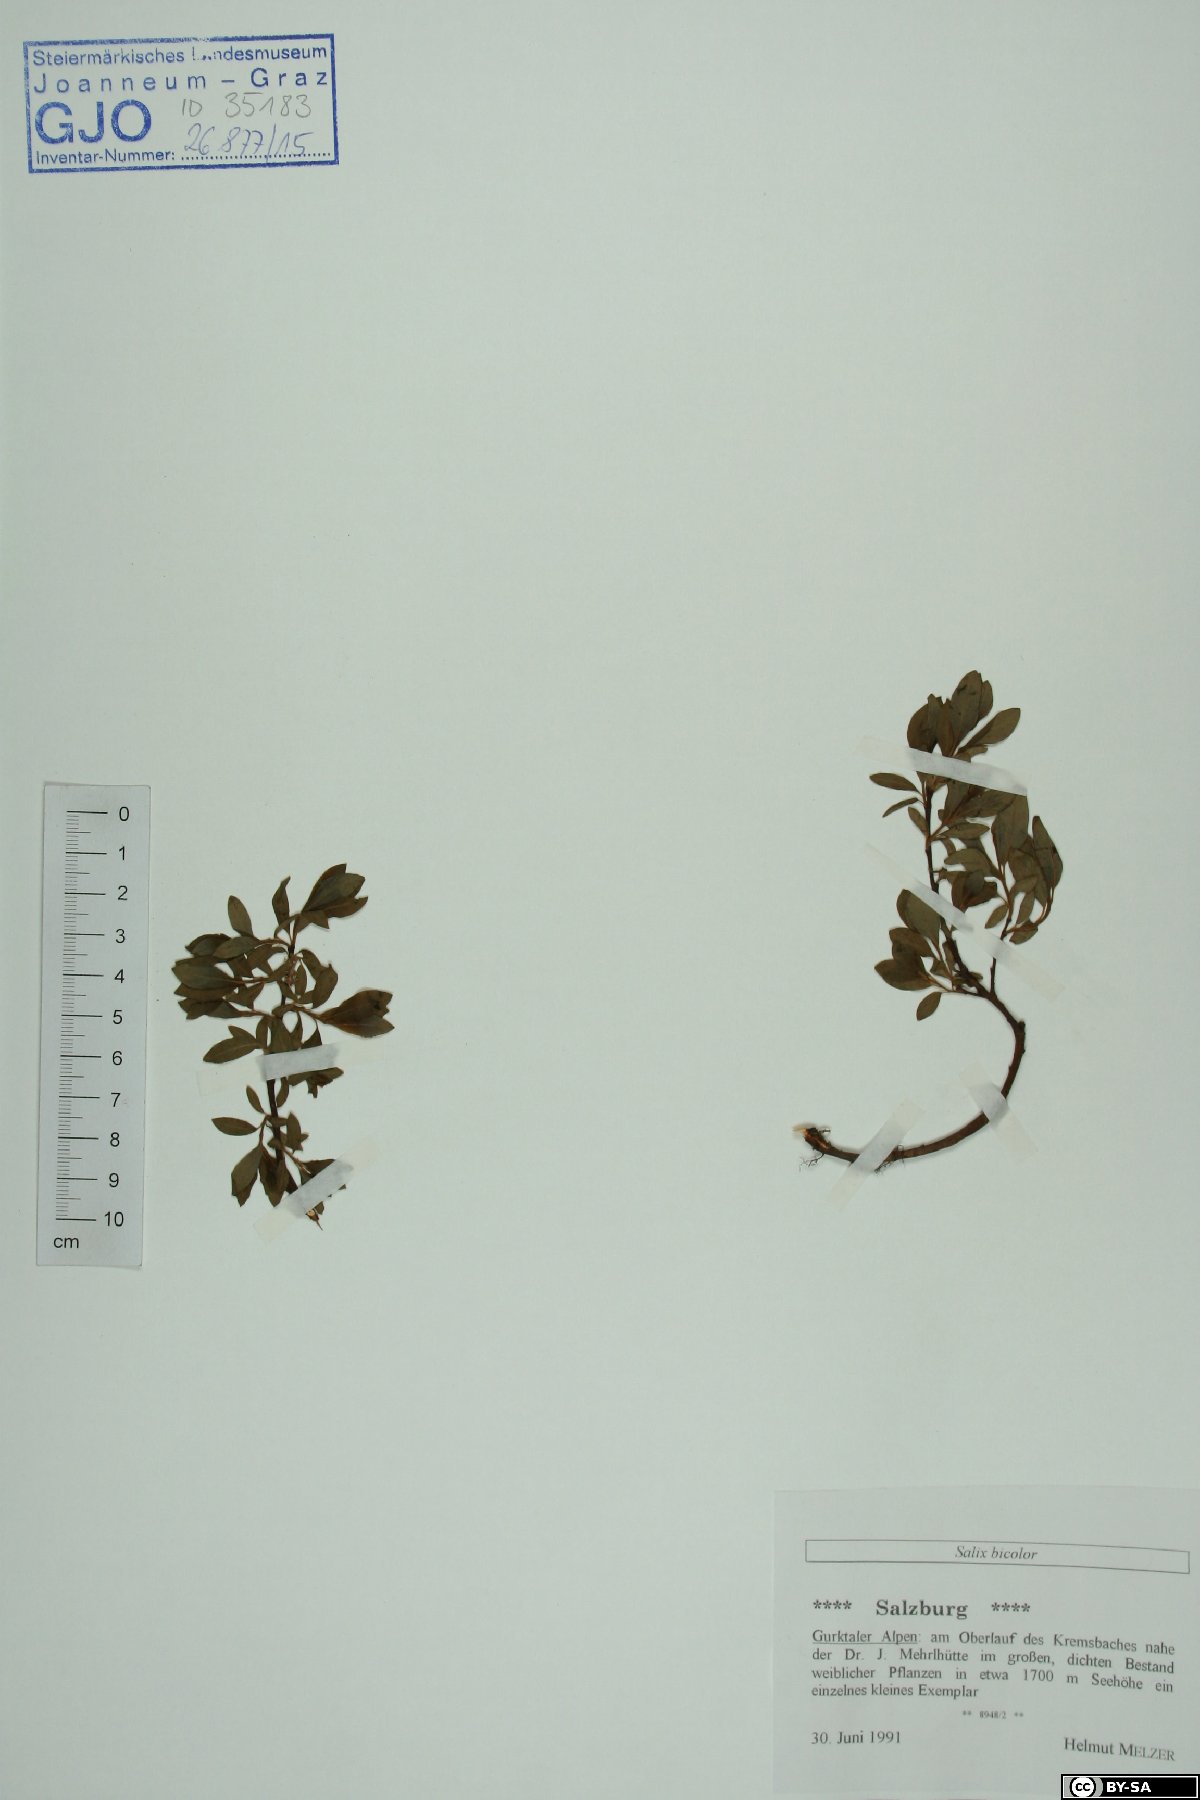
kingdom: Plantae
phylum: Tracheophyta
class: Magnoliopsida
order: Malpighiales
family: Salicaceae
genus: Salix
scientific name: Salix bicolor
